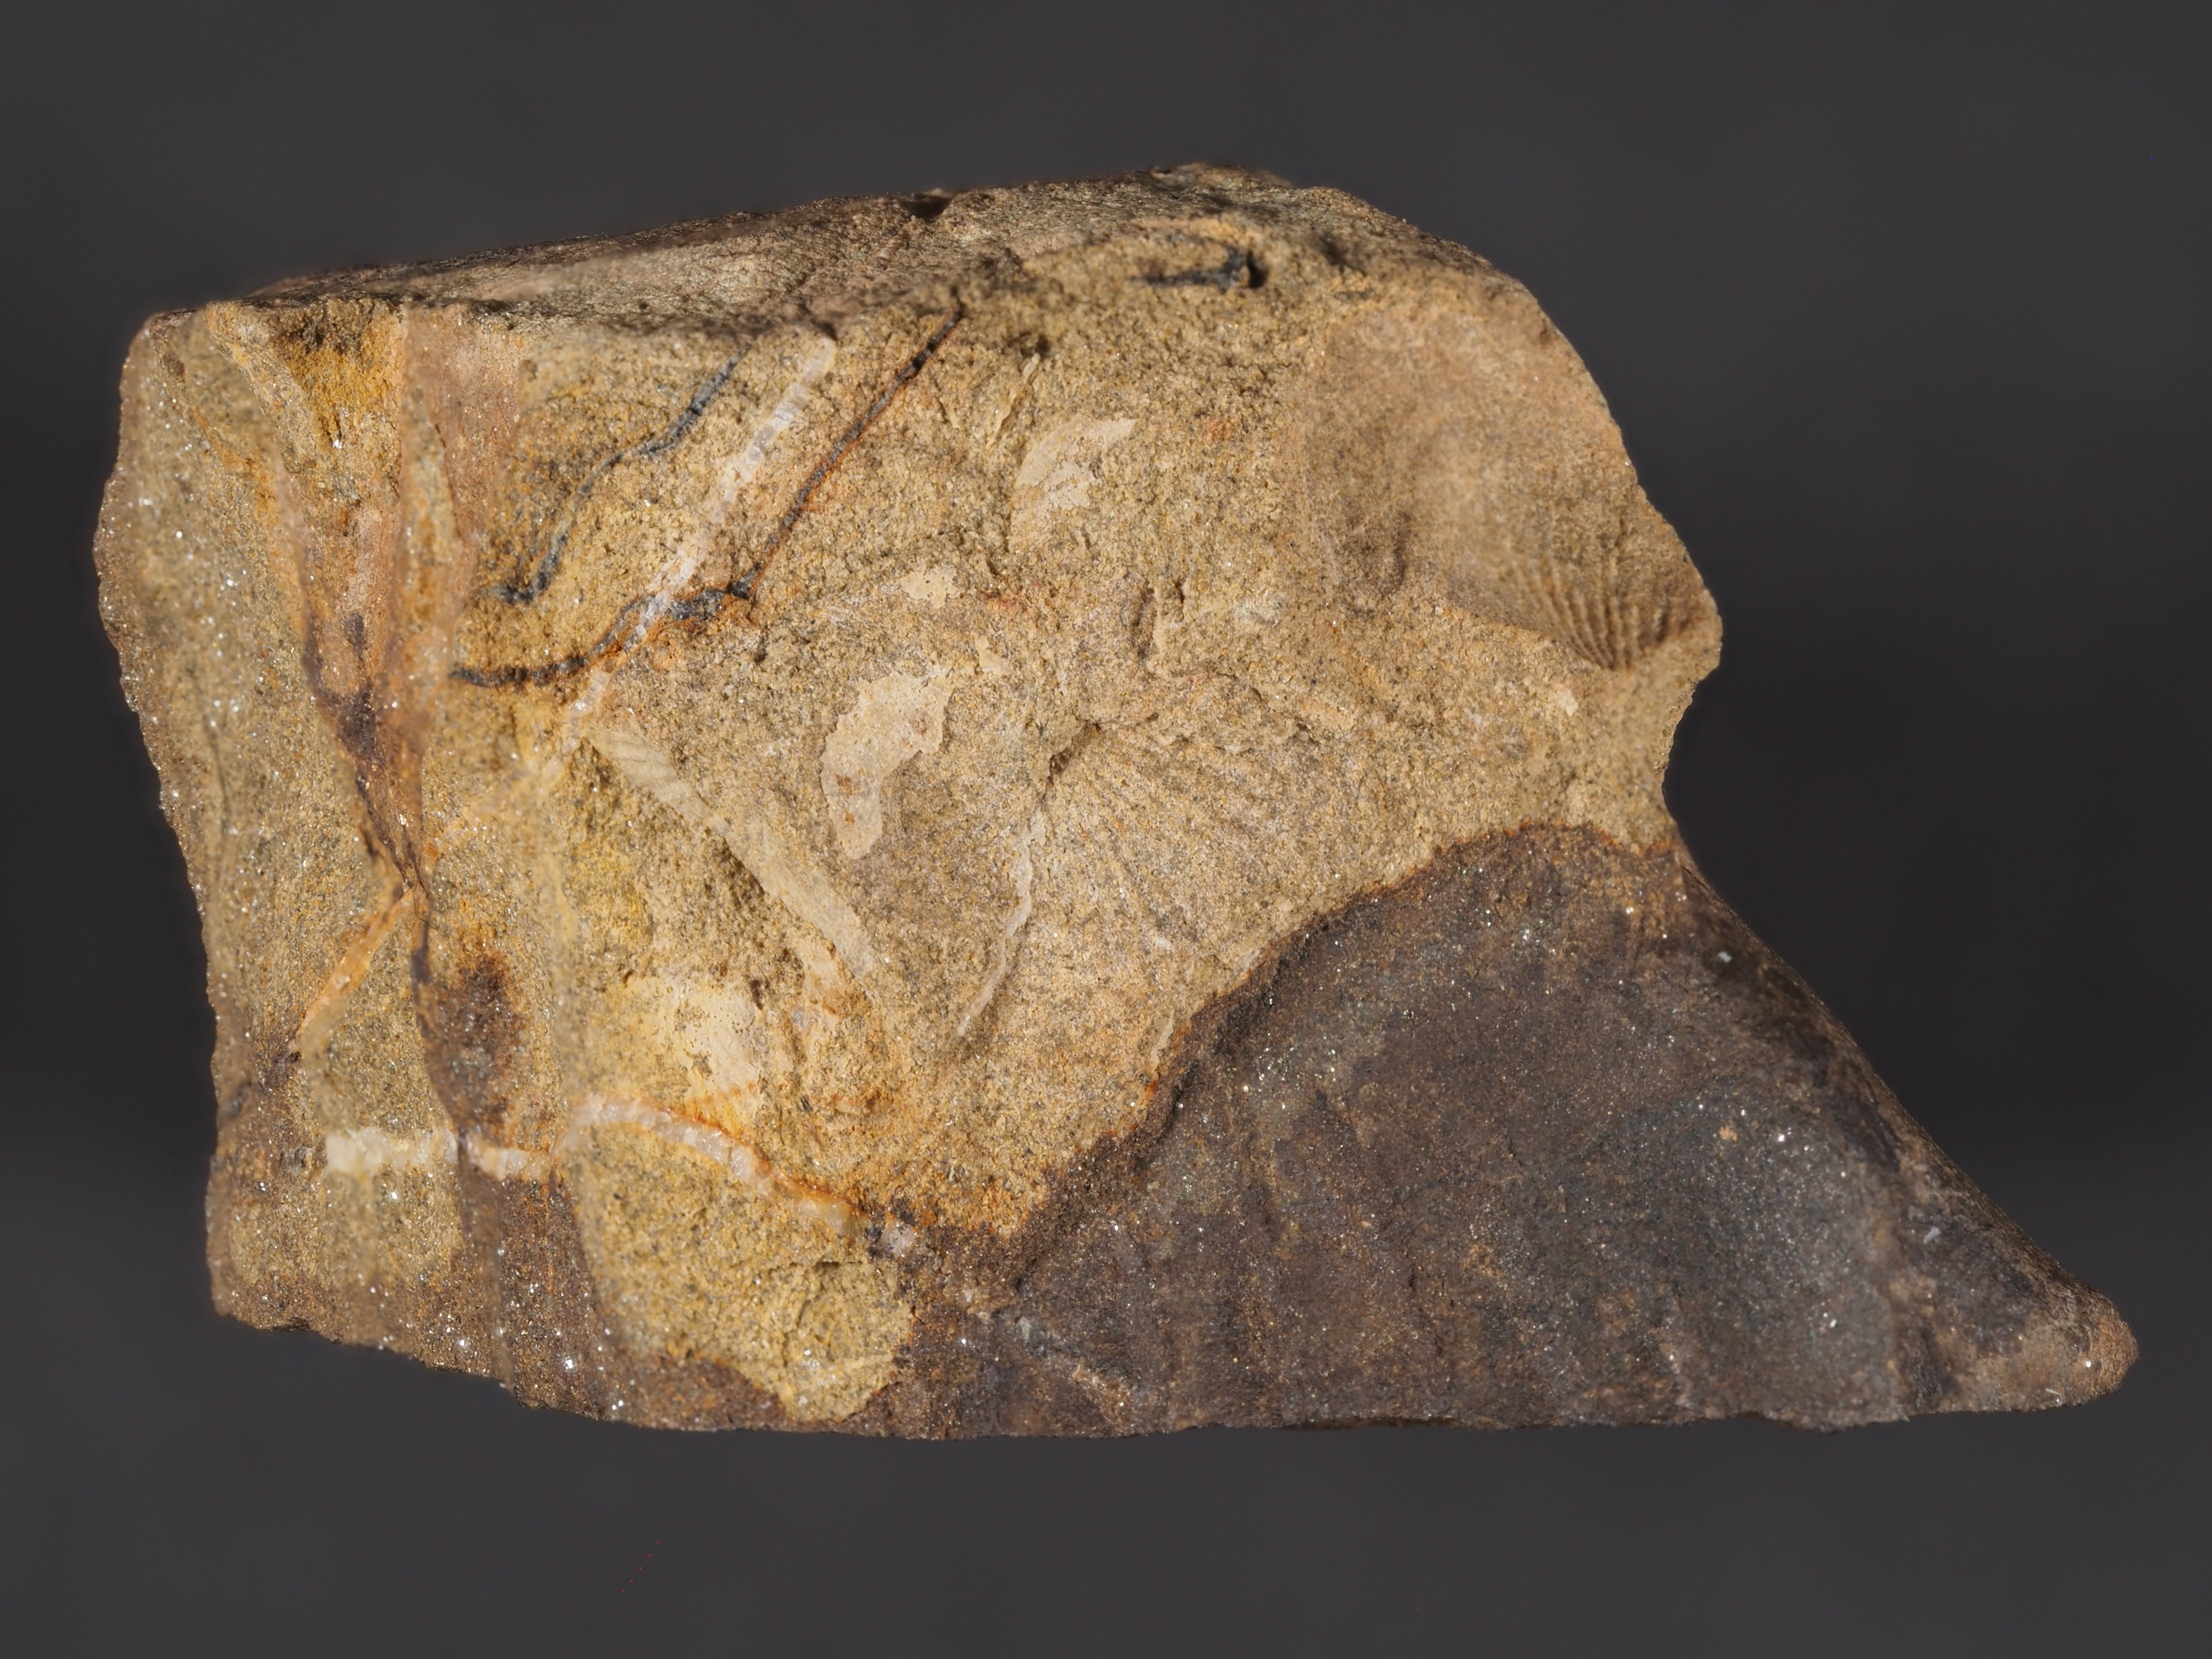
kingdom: Animalia
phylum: Arthropoda
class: Trilobita
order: Phacopida
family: Homalonotidae
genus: Digonus
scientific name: Digonus
